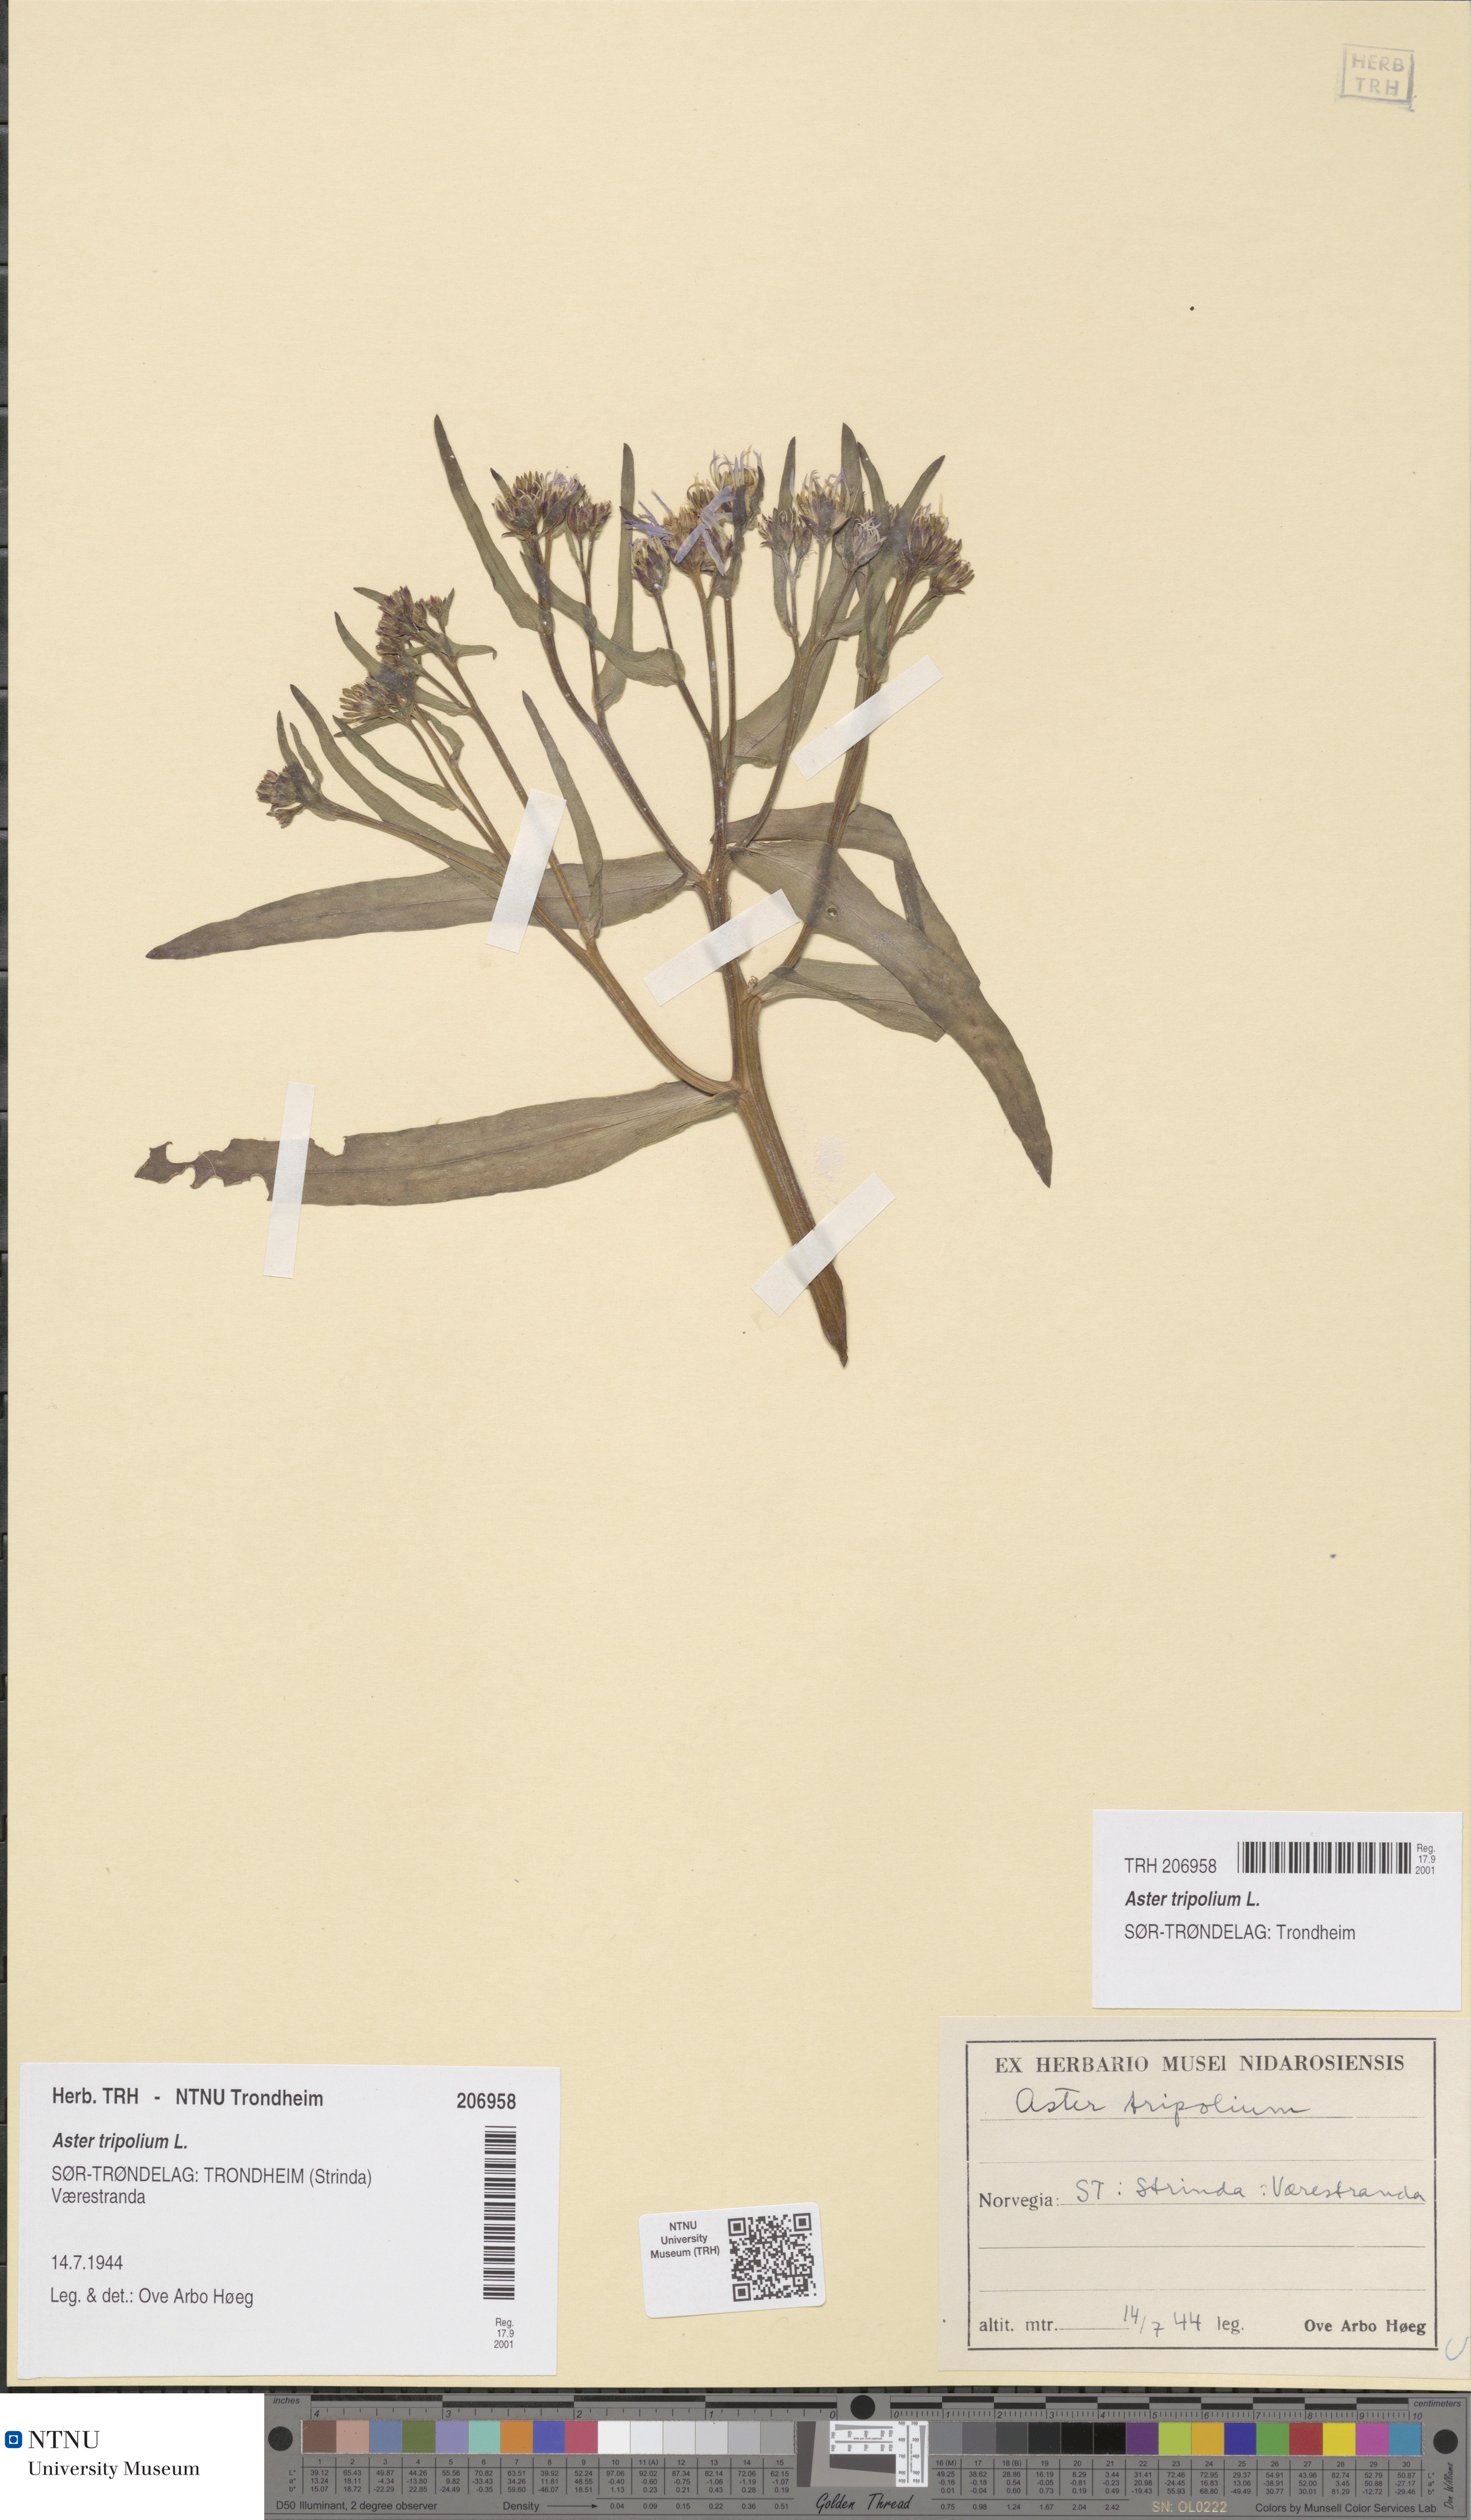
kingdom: Plantae
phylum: Tracheophyta
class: Magnoliopsida
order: Asterales
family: Asteraceae
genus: Tripolium
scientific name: Tripolium pannonicum
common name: Sea aster
